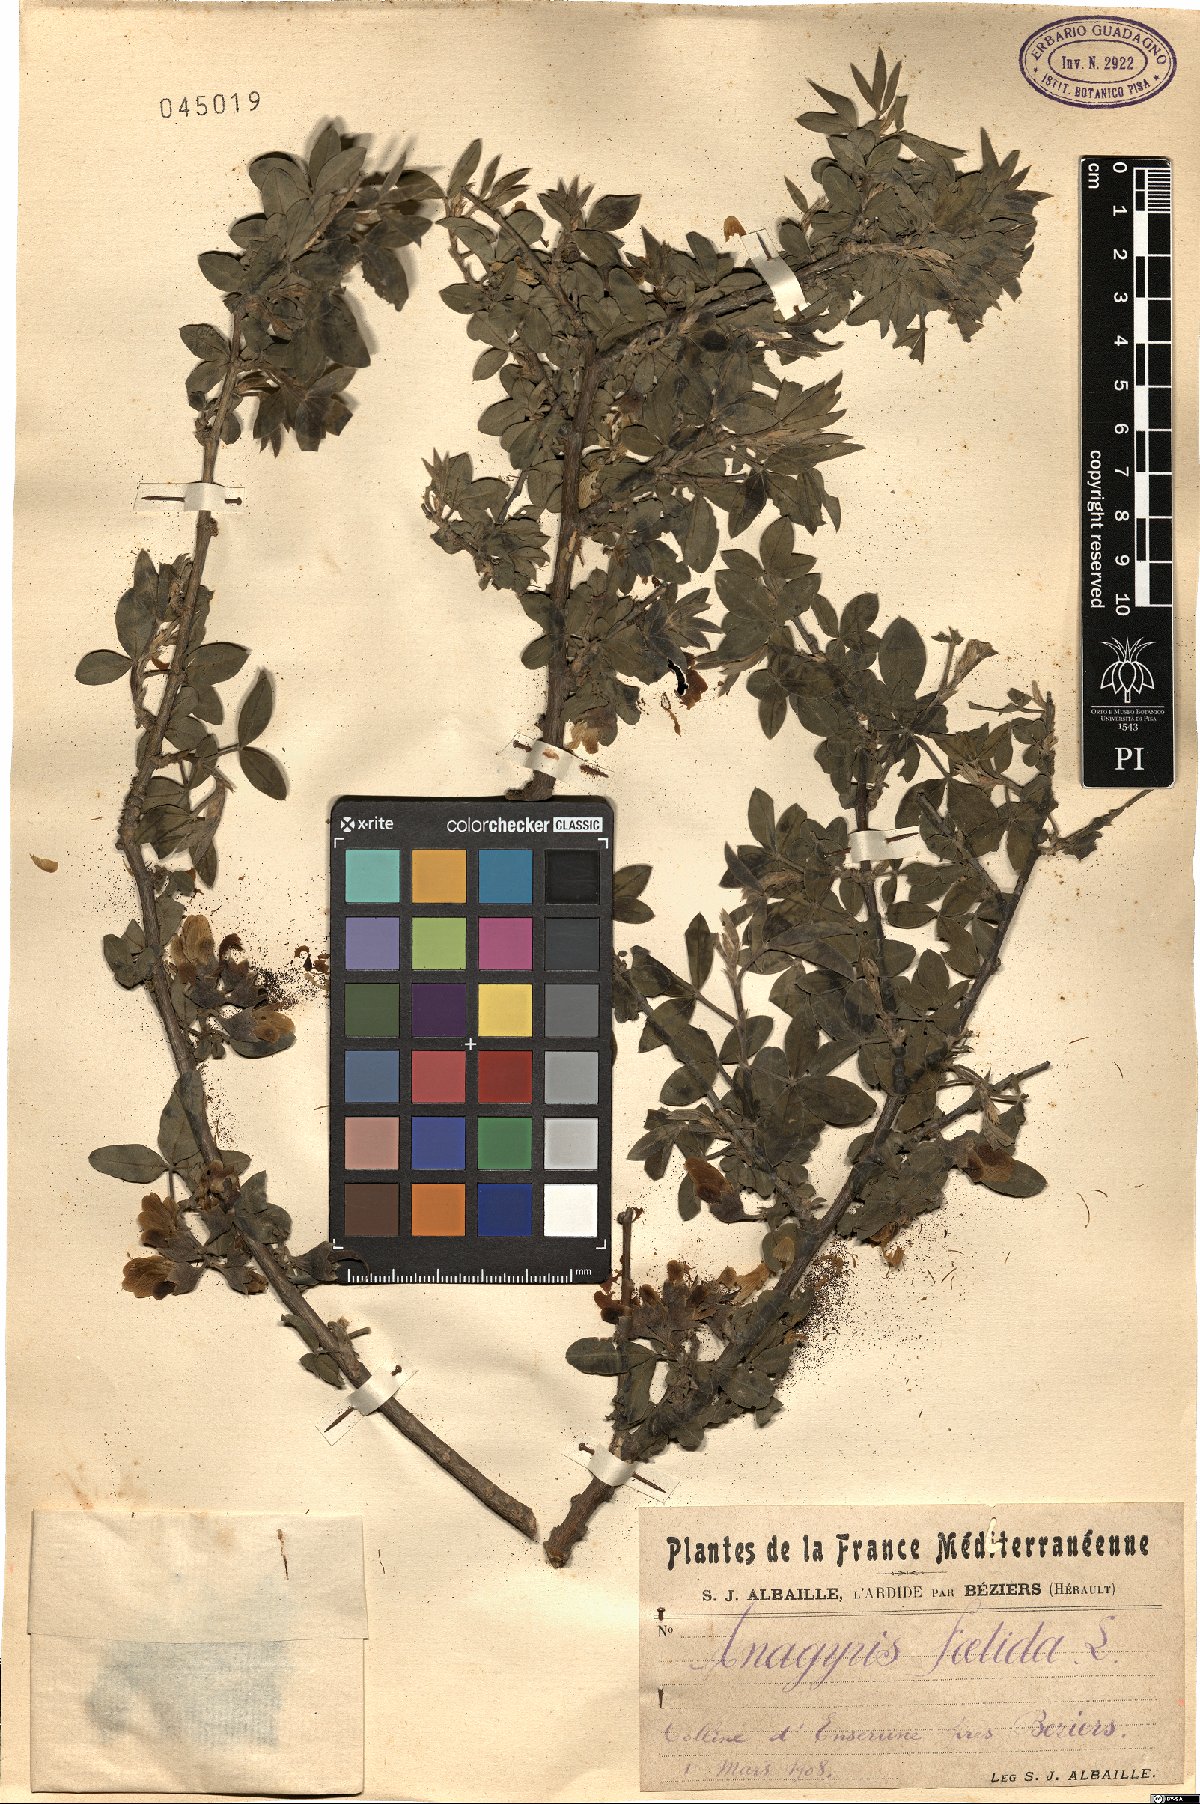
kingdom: Plantae
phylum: Tracheophyta
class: Magnoliopsida
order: Fabales
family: Fabaceae
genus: Anagyris
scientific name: Anagyris foetida
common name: Stinking bean trefoil
